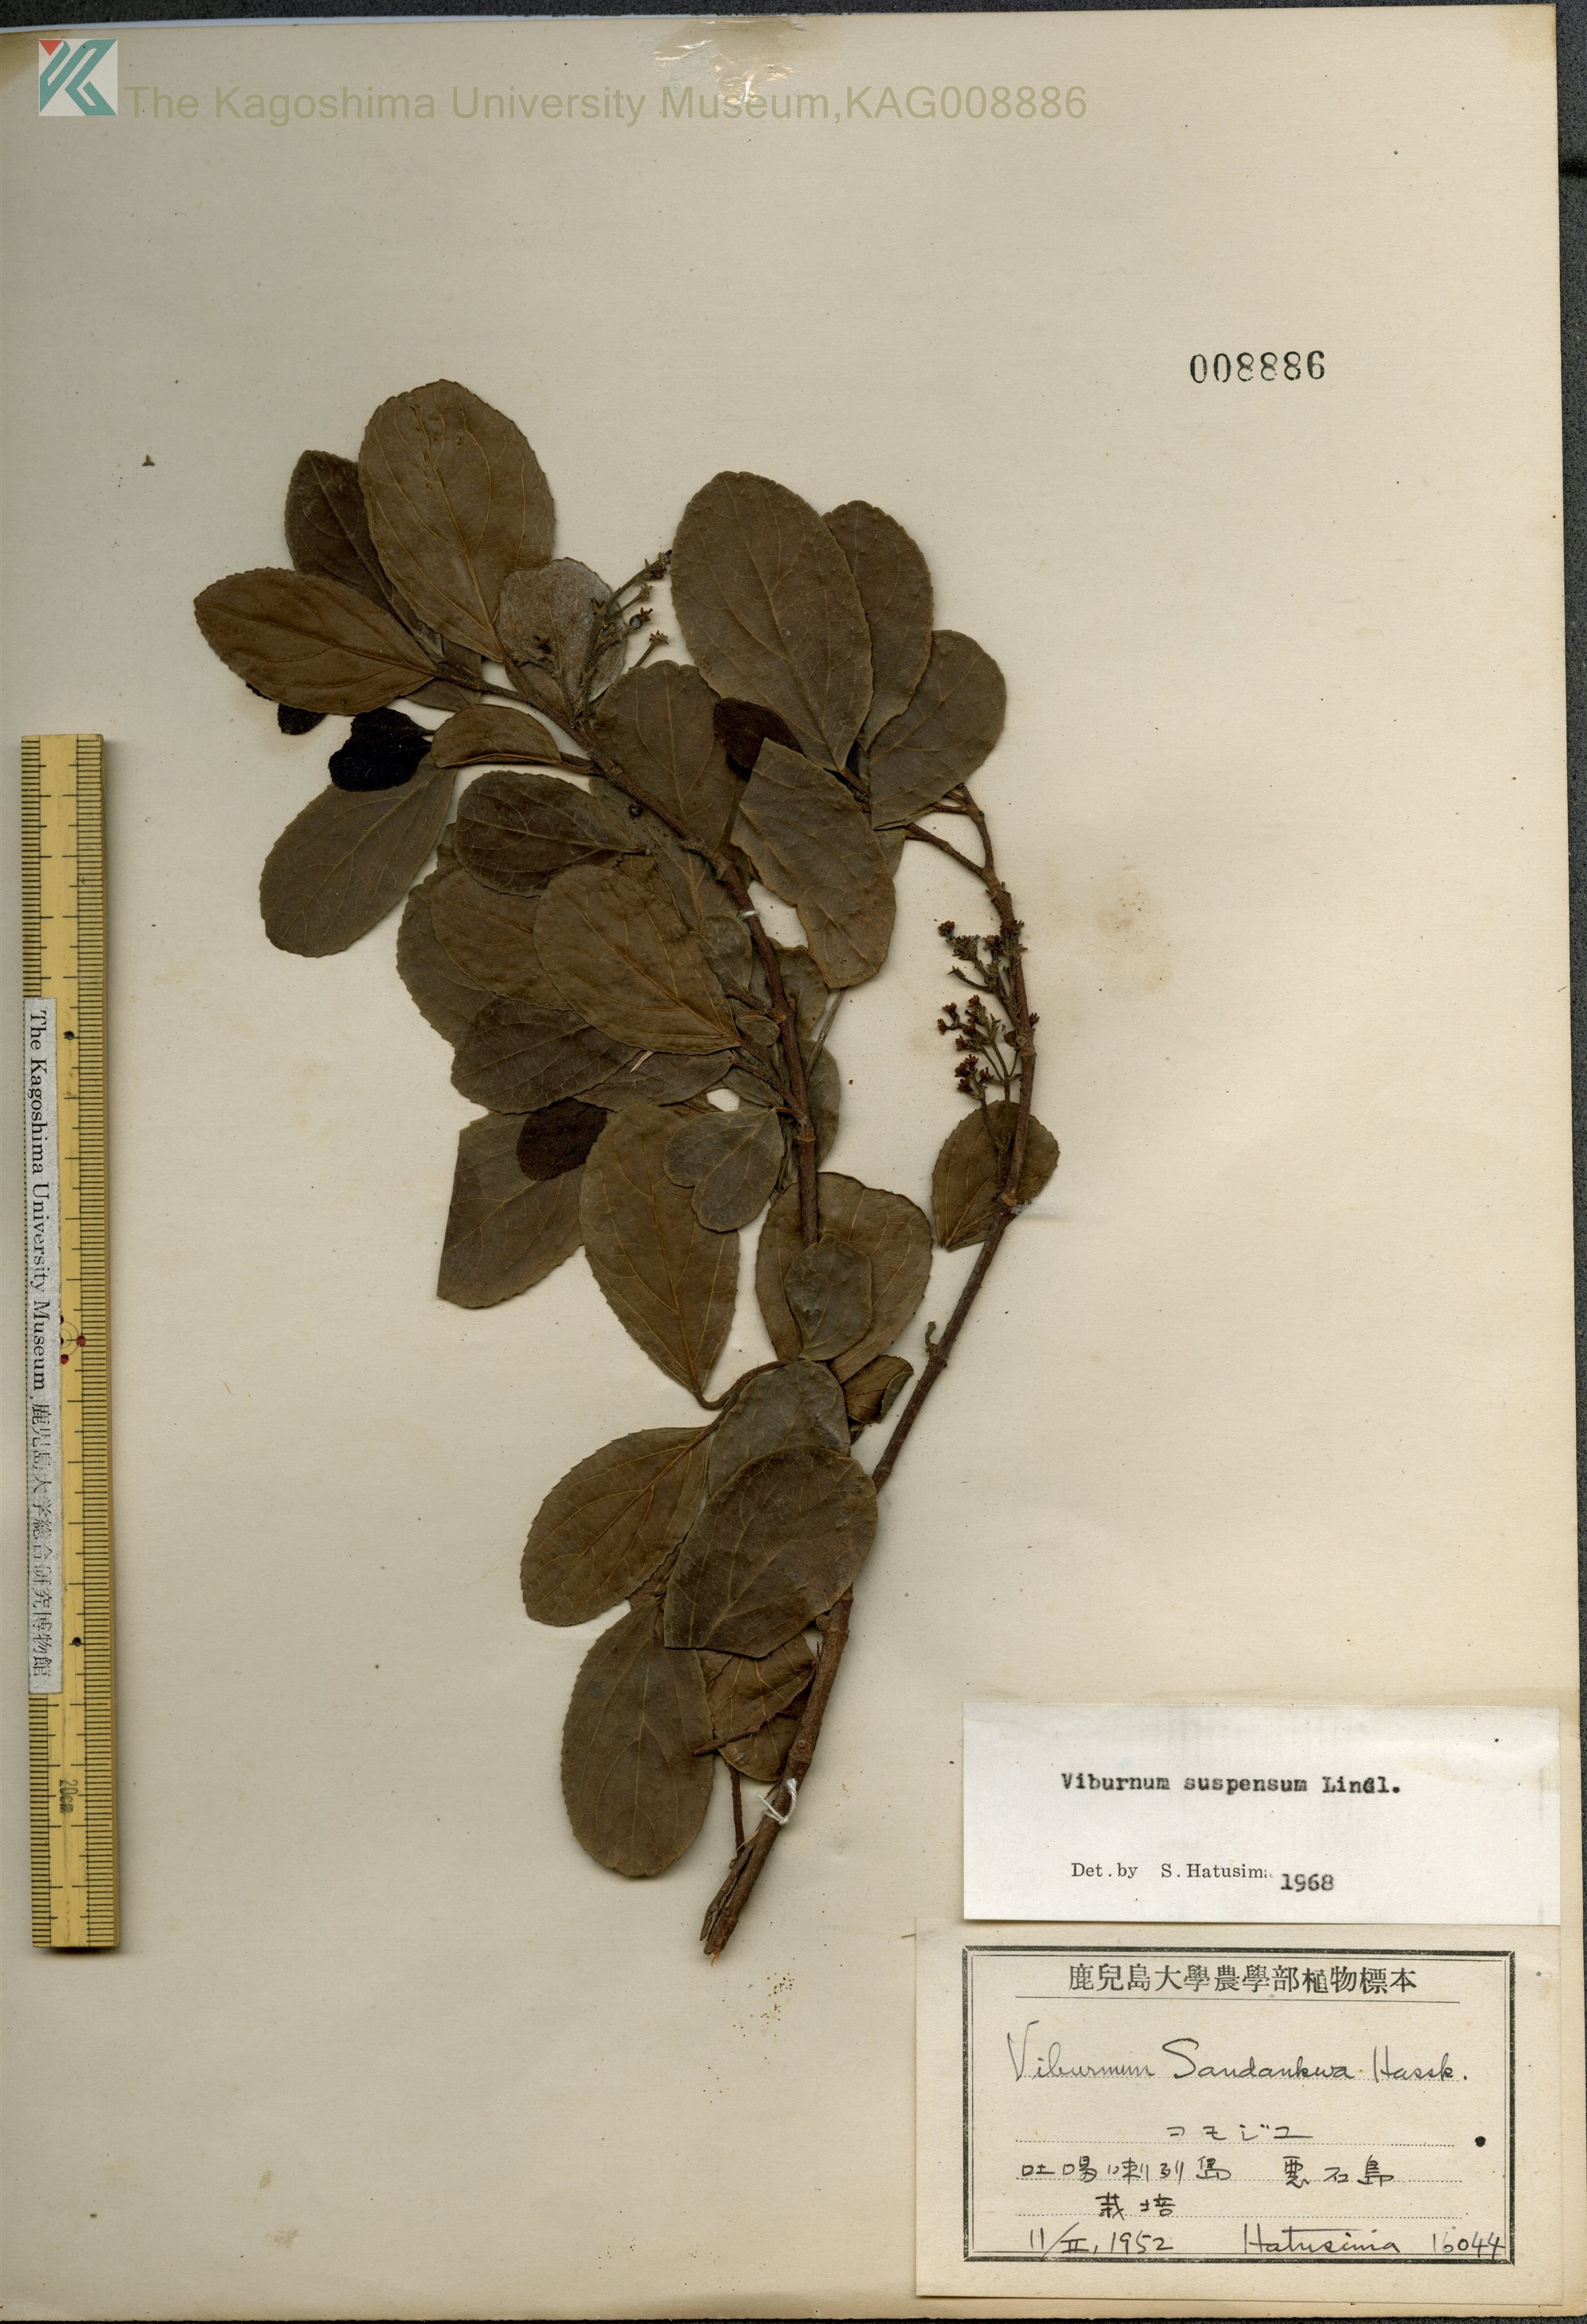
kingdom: Plantae
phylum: Tracheophyta
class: Magnoliopsida
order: Dipsacales
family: Viburnaceae
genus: Viburnum
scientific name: Viburnum suspensum
